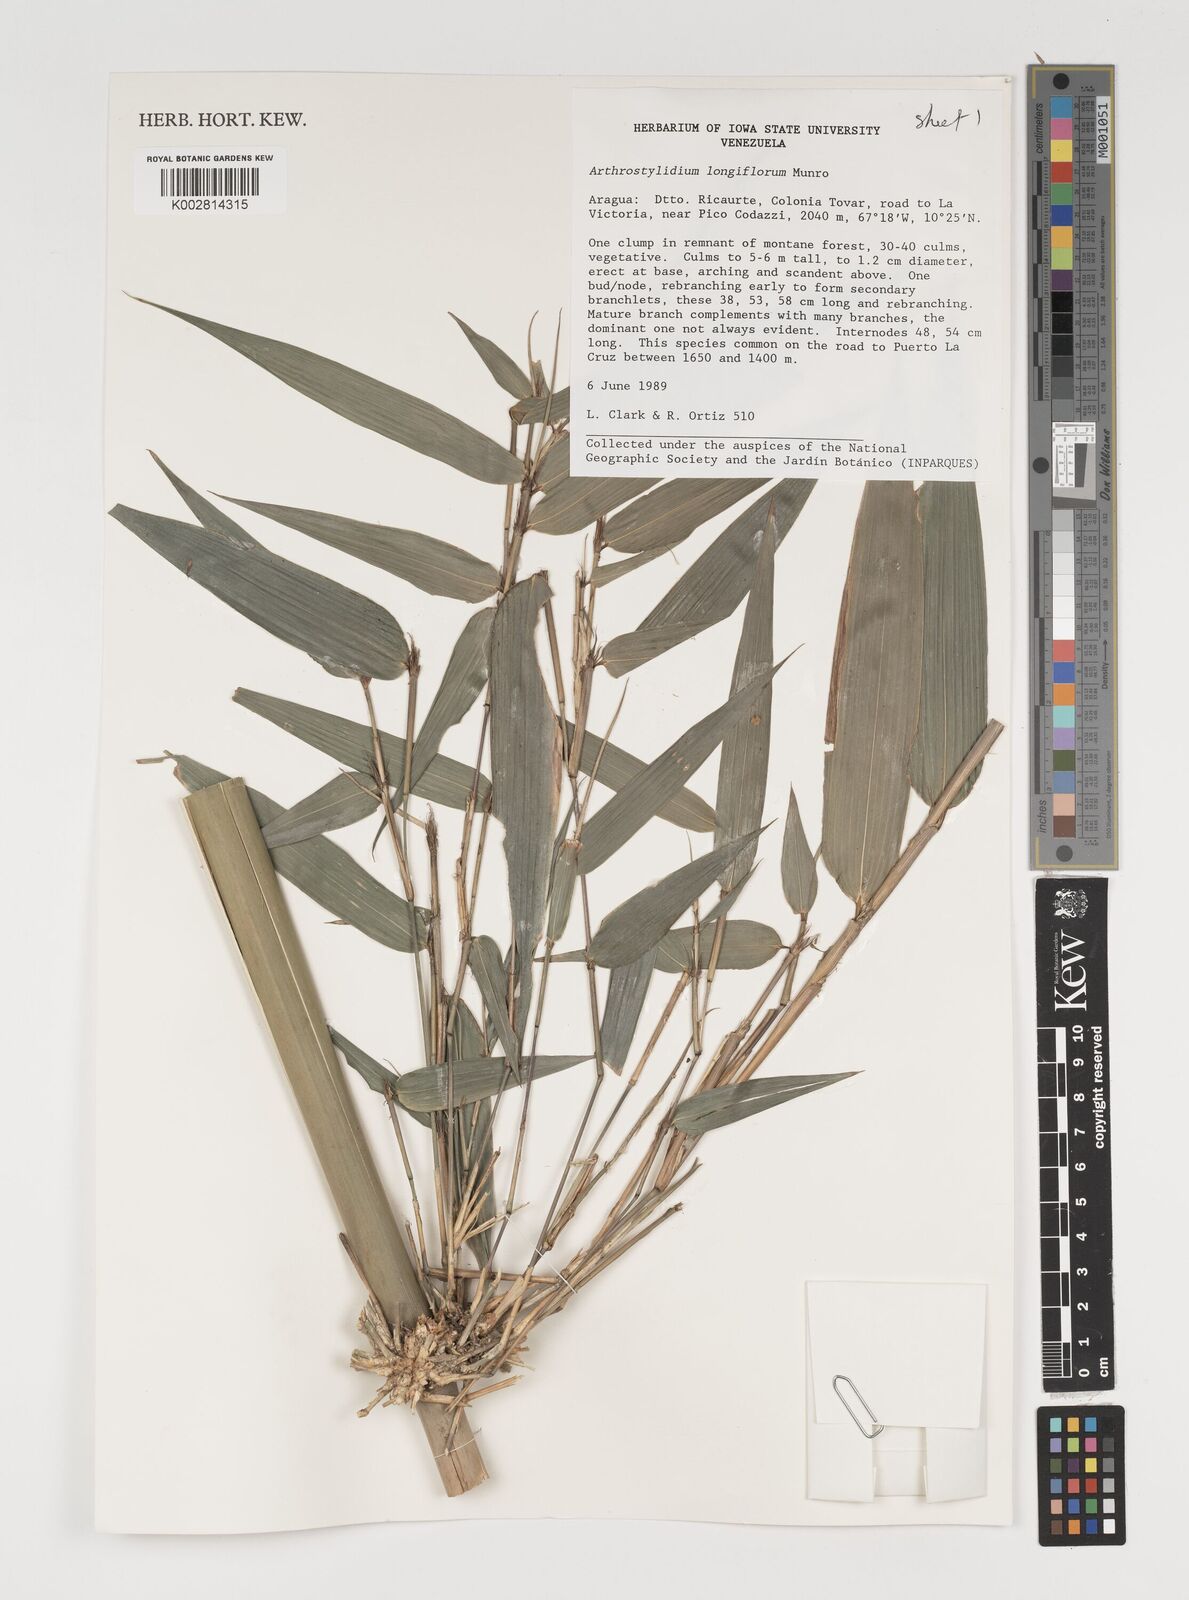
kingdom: Plantae
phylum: Tracheophyta
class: Liliopsida
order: Poales
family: Poaceae
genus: Arthrostylidium
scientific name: Arthrostylidium longiflorum
